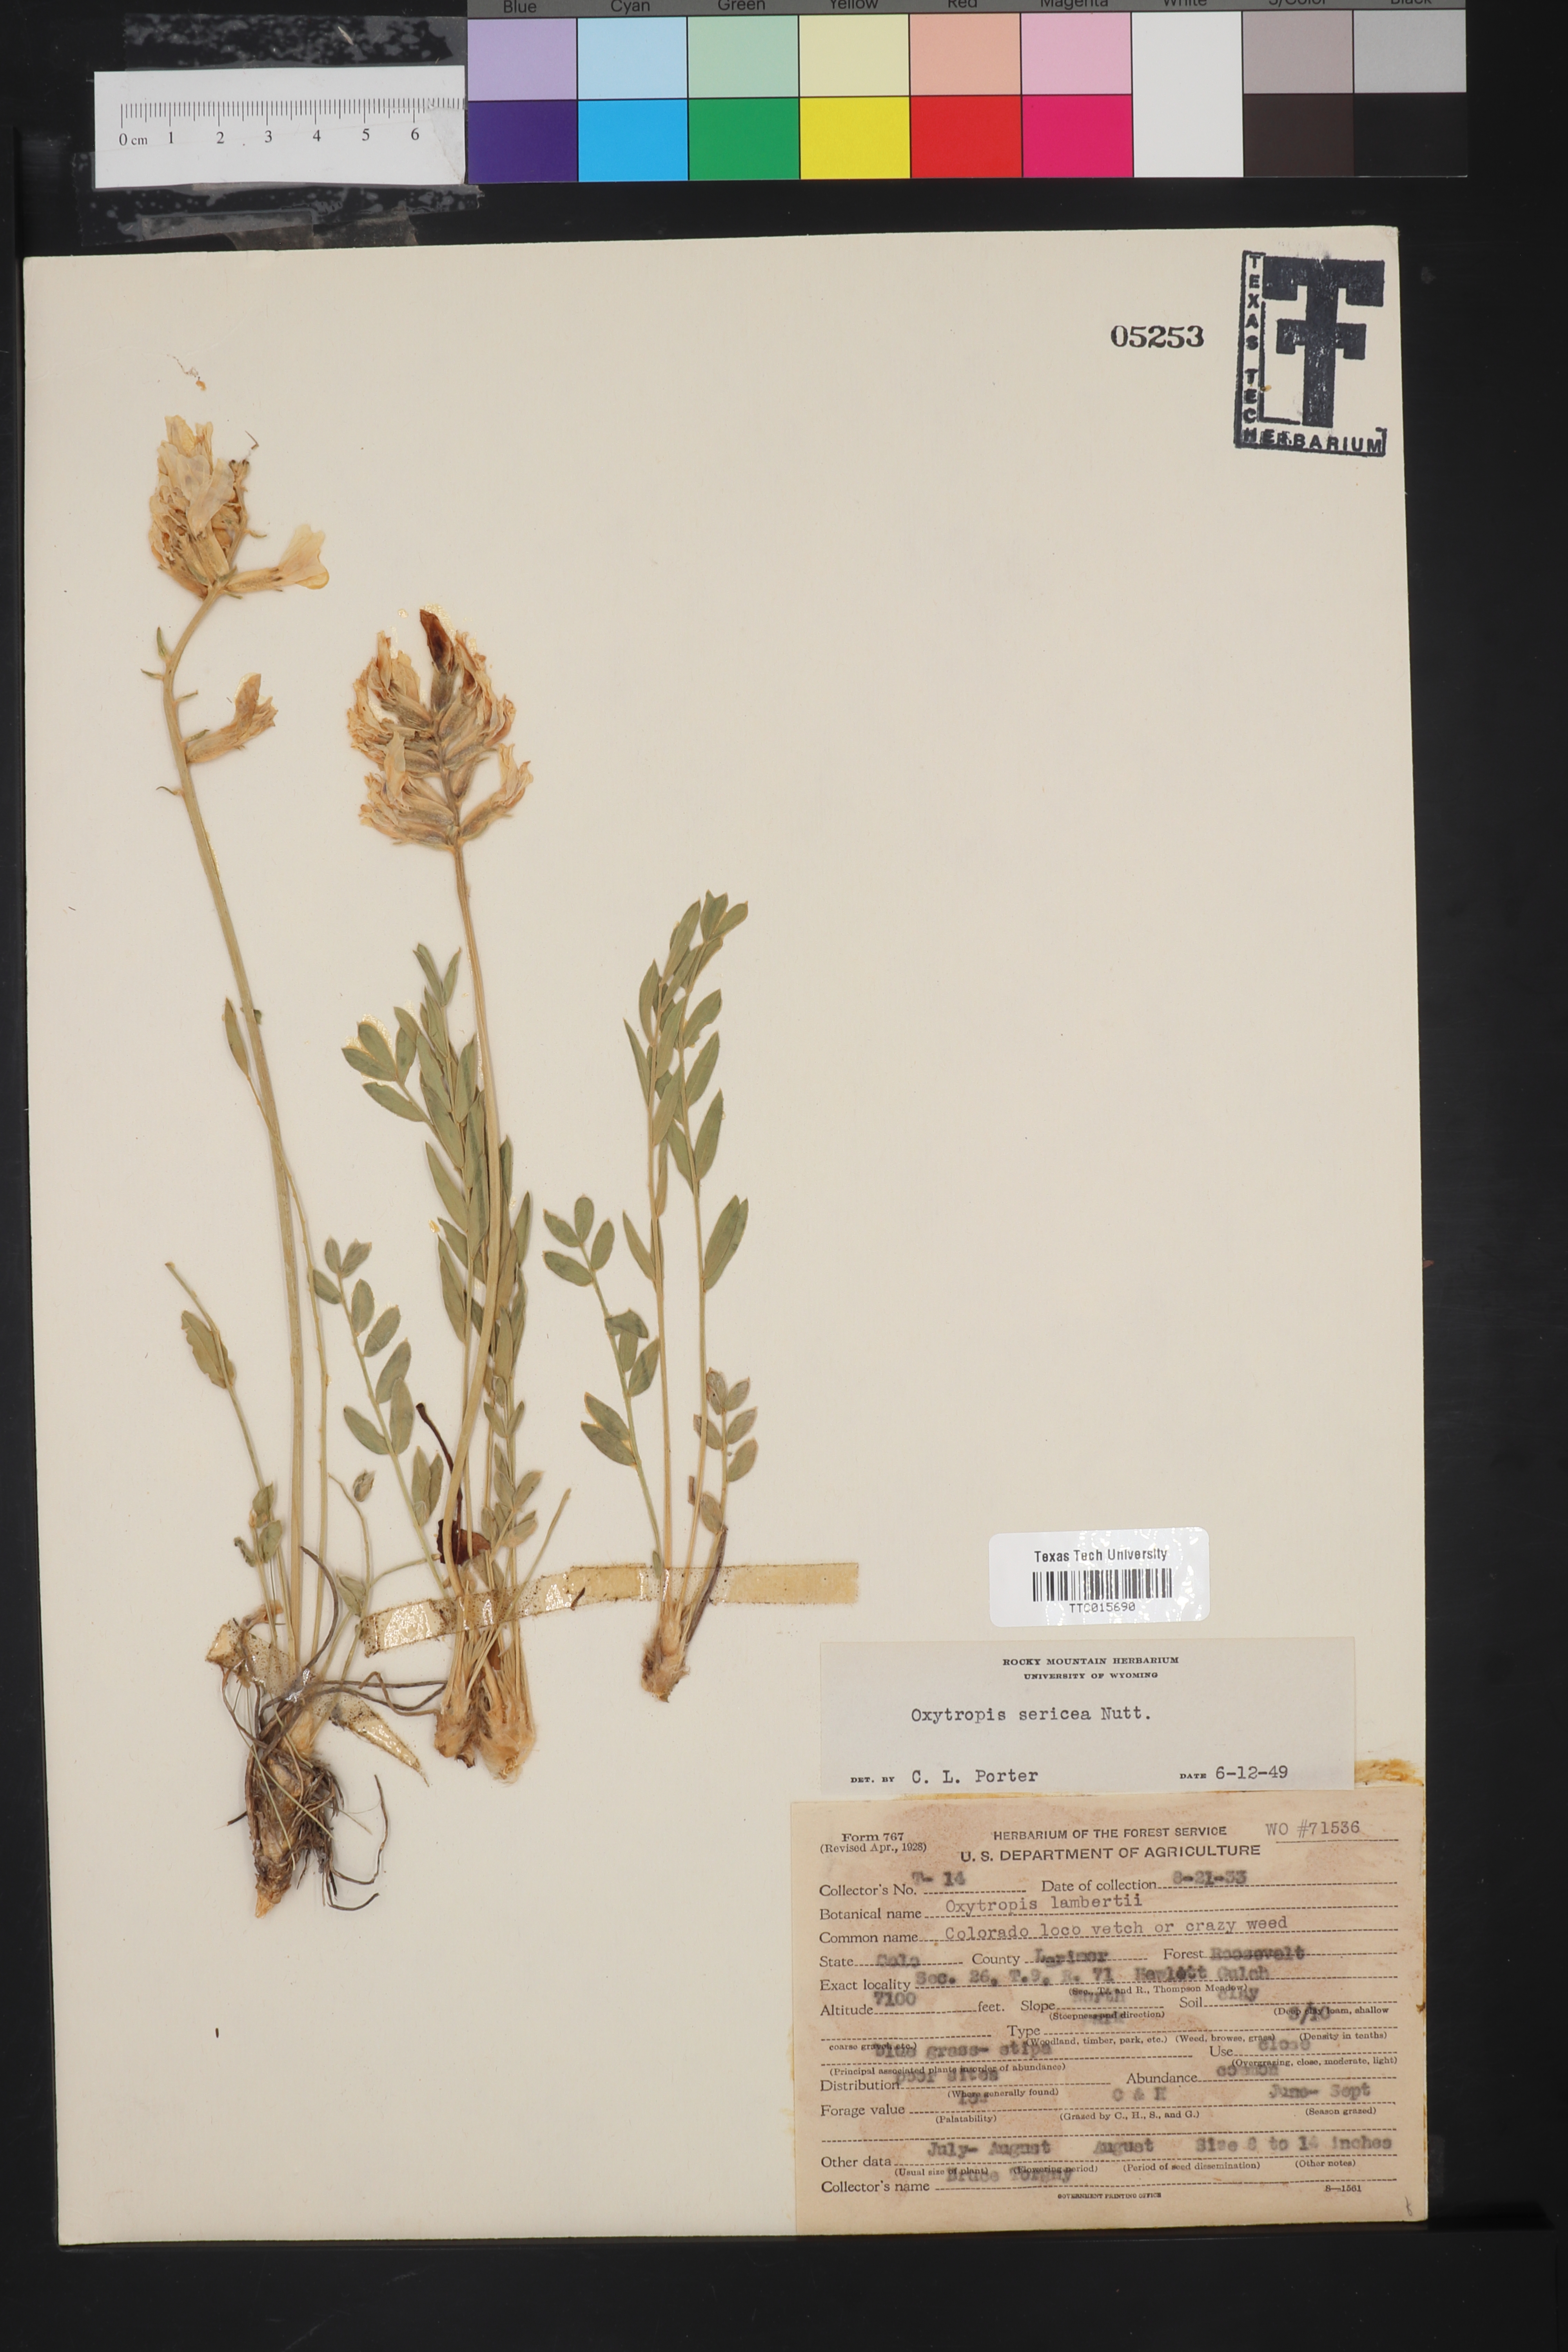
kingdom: Plantae
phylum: Tracheophyta
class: Magnoliopsida
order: Fabales
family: Fabaceae
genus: Oxytropis
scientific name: Oxytropis sericea
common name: Silky locoweed
